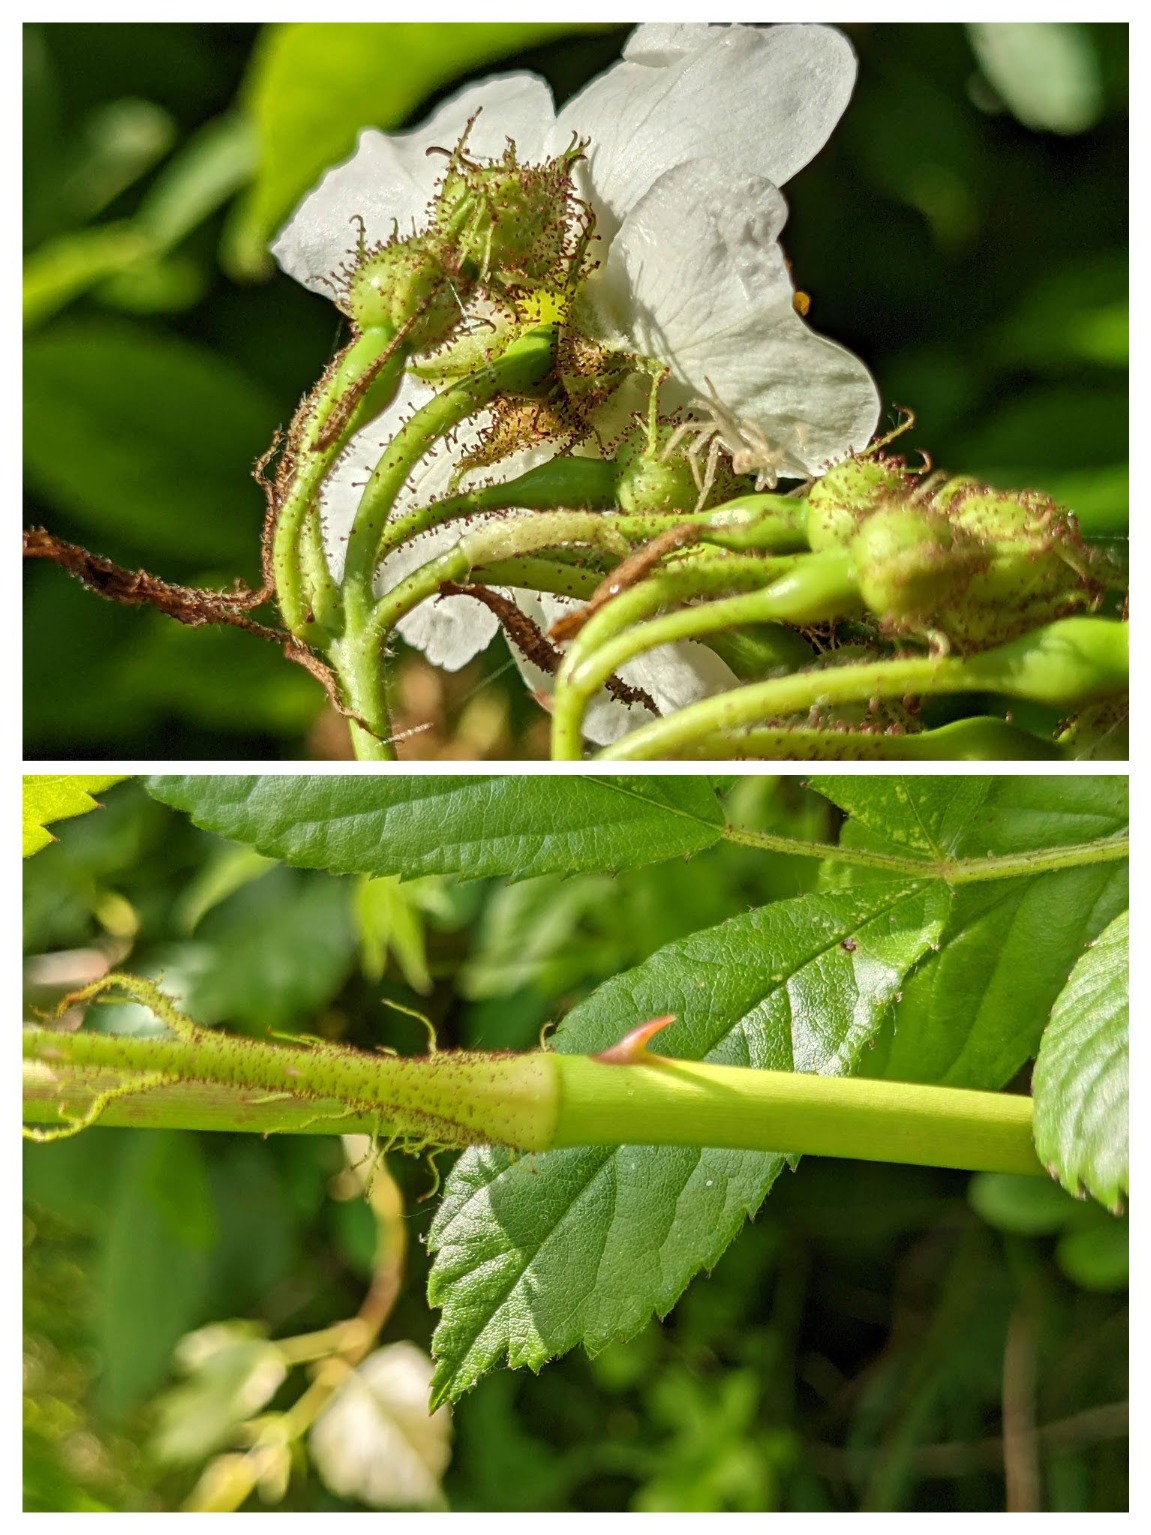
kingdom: Plantae
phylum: Tracheophyta
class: Magnoliopsida
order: Rosales
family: Rosaceae
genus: Rosa
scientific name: Rosa multiflora
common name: Mangeblomstret rose
